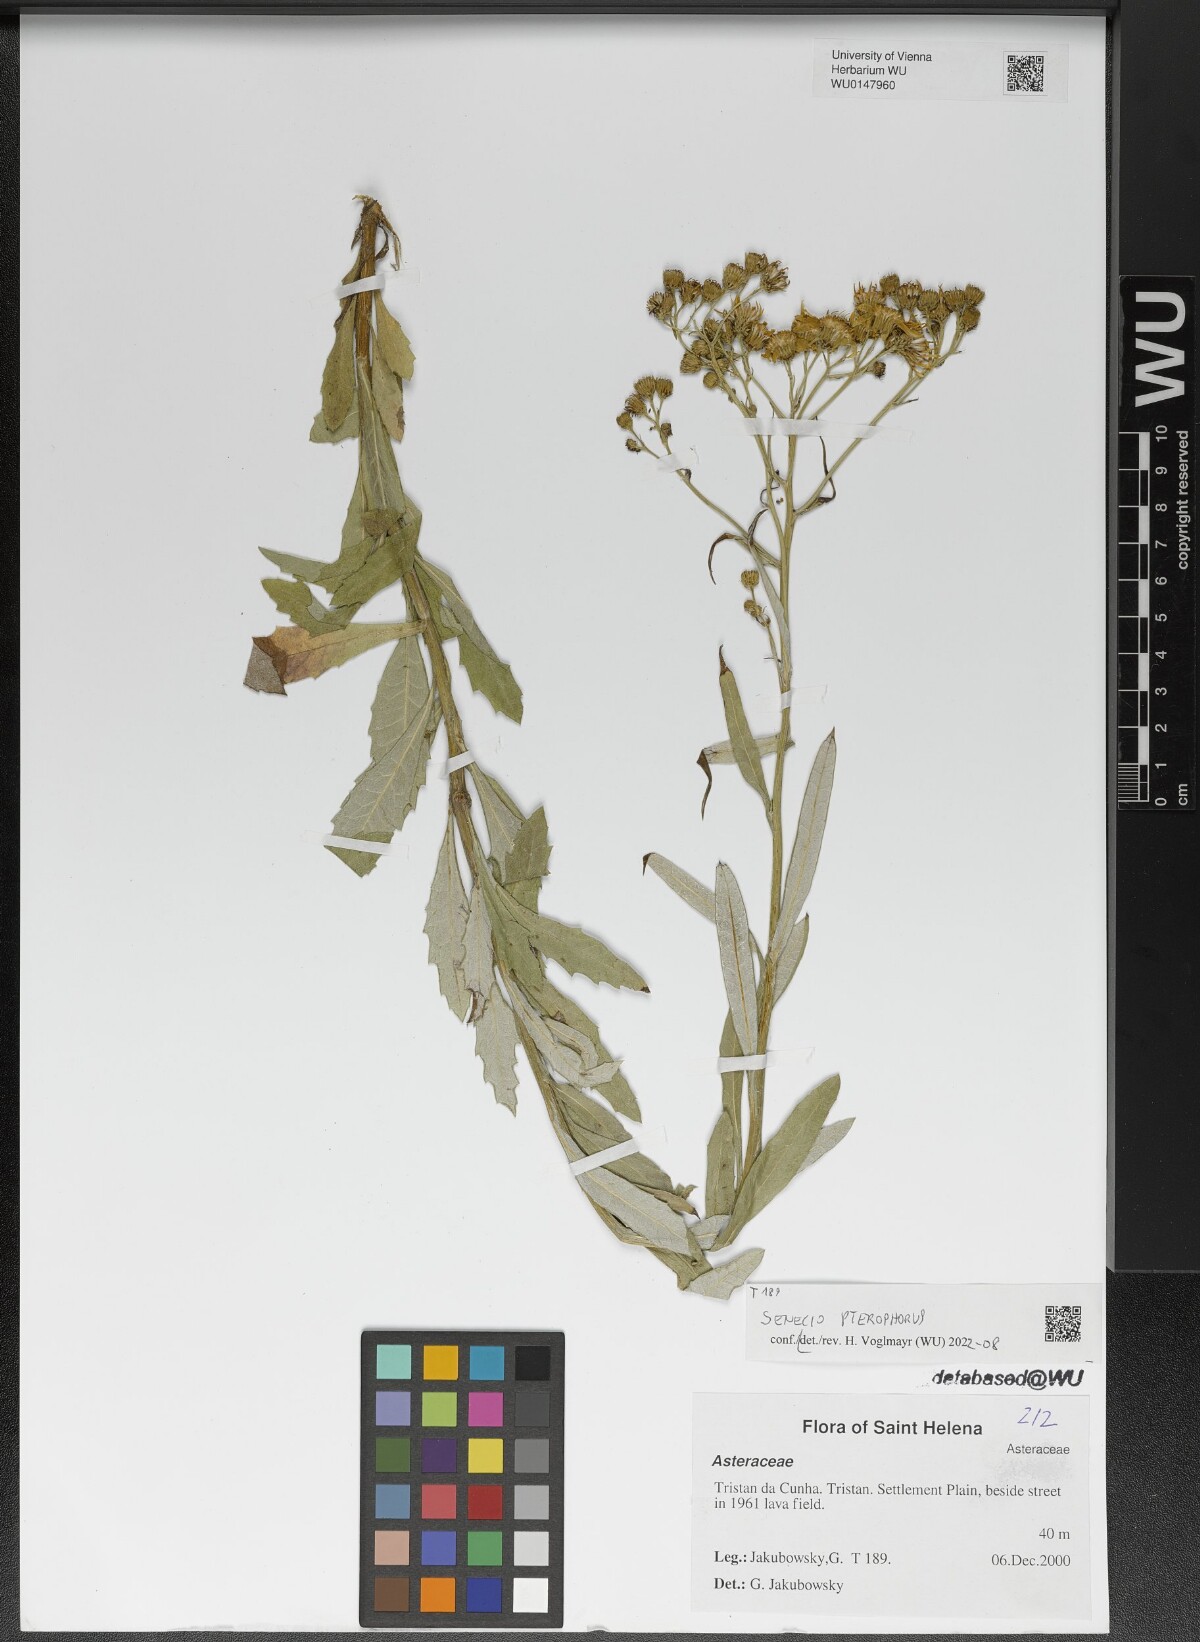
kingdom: Plantae
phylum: Tracheophyta
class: Magnoliopsida
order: Asterales
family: Asteraceae
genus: Senecio
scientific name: Senecio pterophorus
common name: Shoddy ragwort
